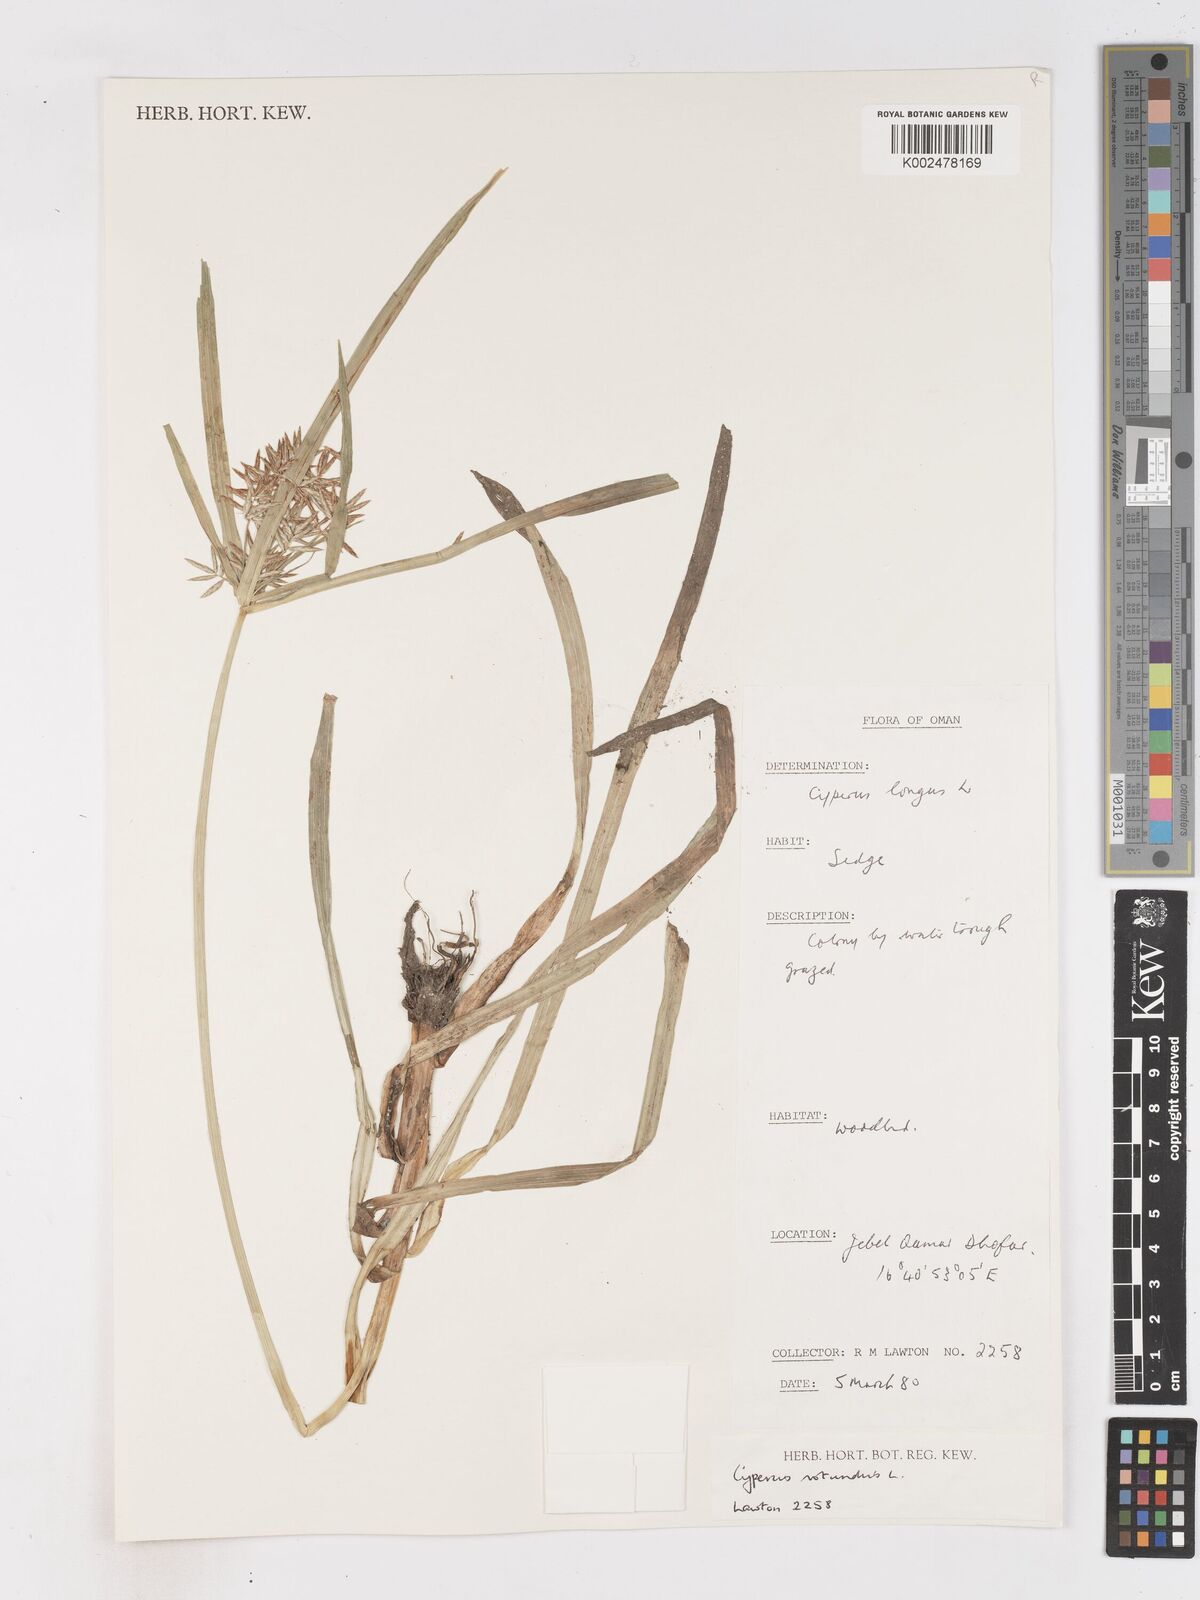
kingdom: Plantae
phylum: Tracheophyta
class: Liliopsida
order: Poales
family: Cyperaceae
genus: Cyperus
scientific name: Cyperus nubicus
